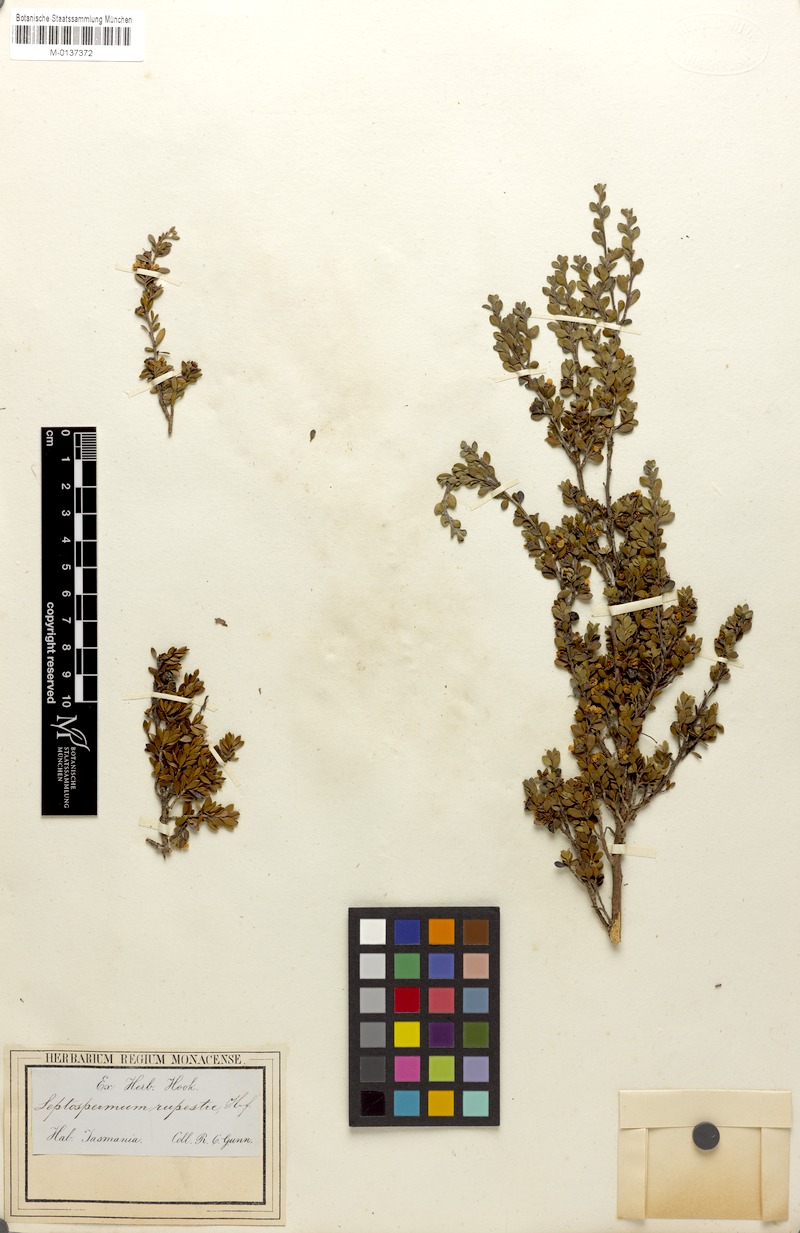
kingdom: Plantae
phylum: Tracheophyta
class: Magnoliopsida
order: Myrtales
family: Myrtaceae
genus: Leptospermum
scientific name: Leptospermum rupestre
